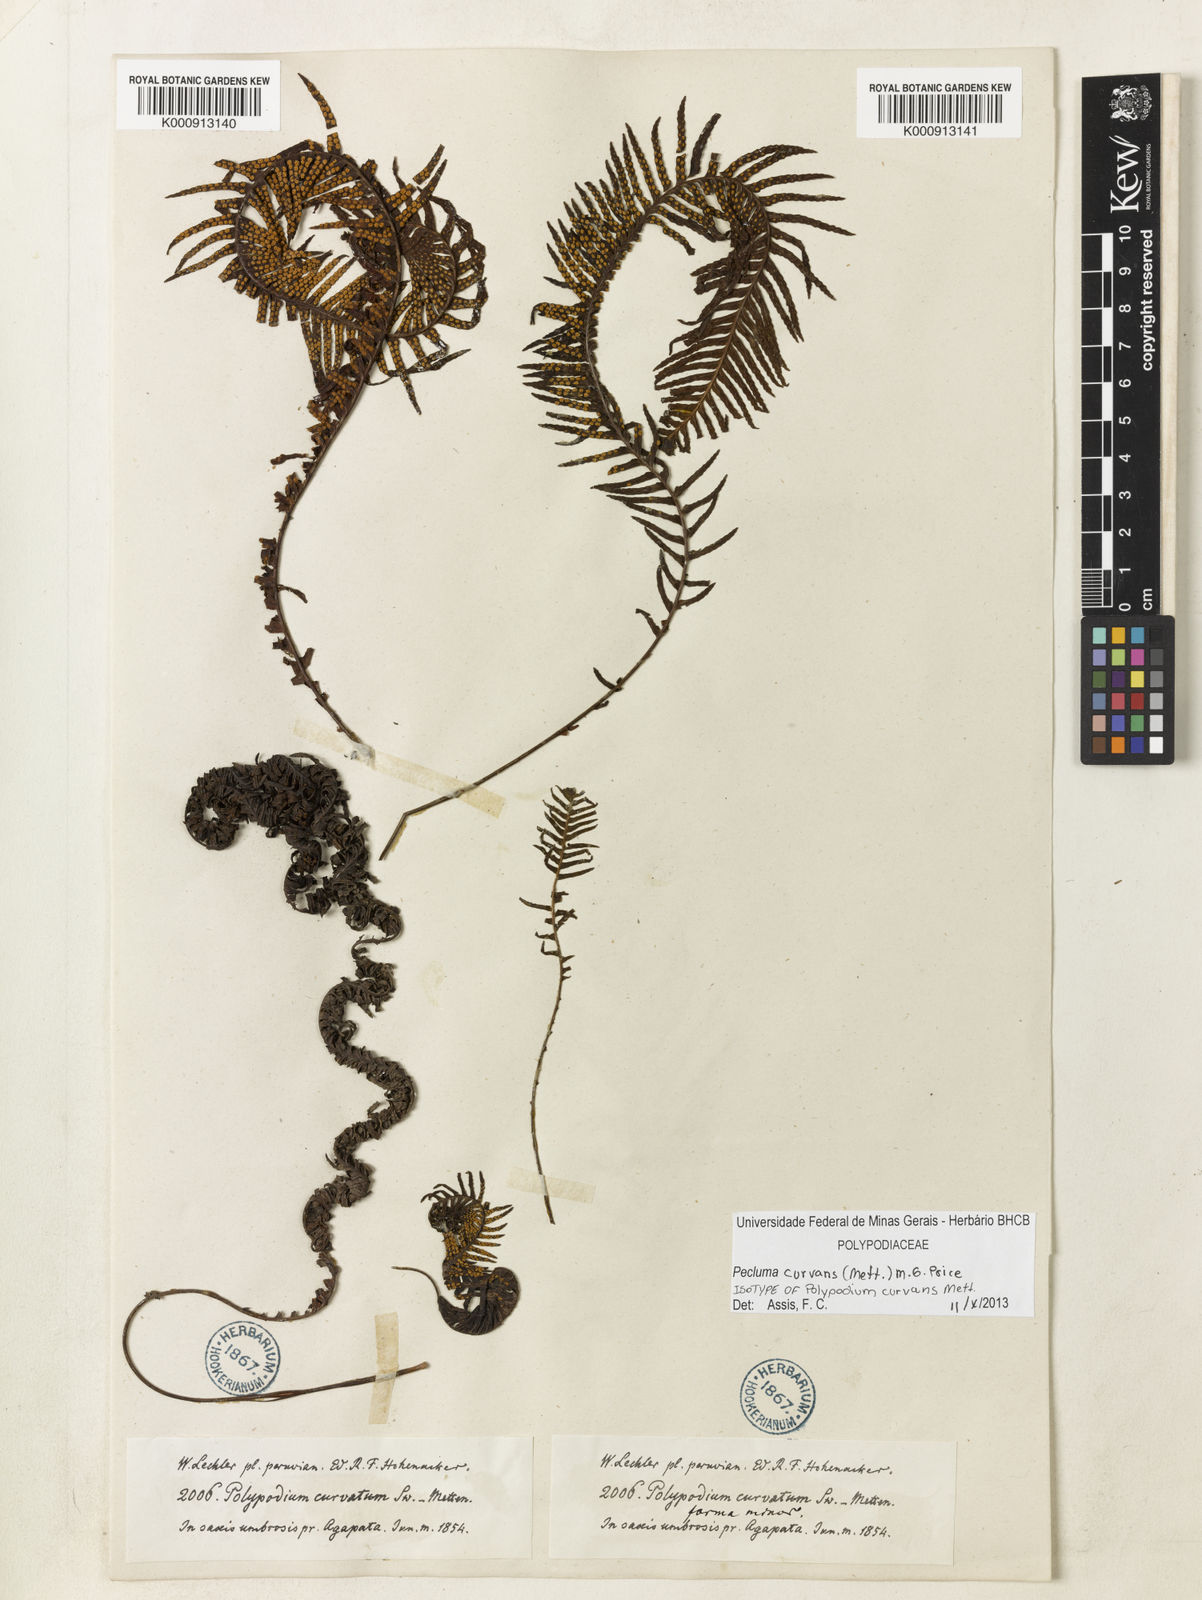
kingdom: Plantae
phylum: Tracheophyta
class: Polypodiopsida
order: Polypodiales
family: Polypodiaceae
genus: Pecluma
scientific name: Pecluma curvans
